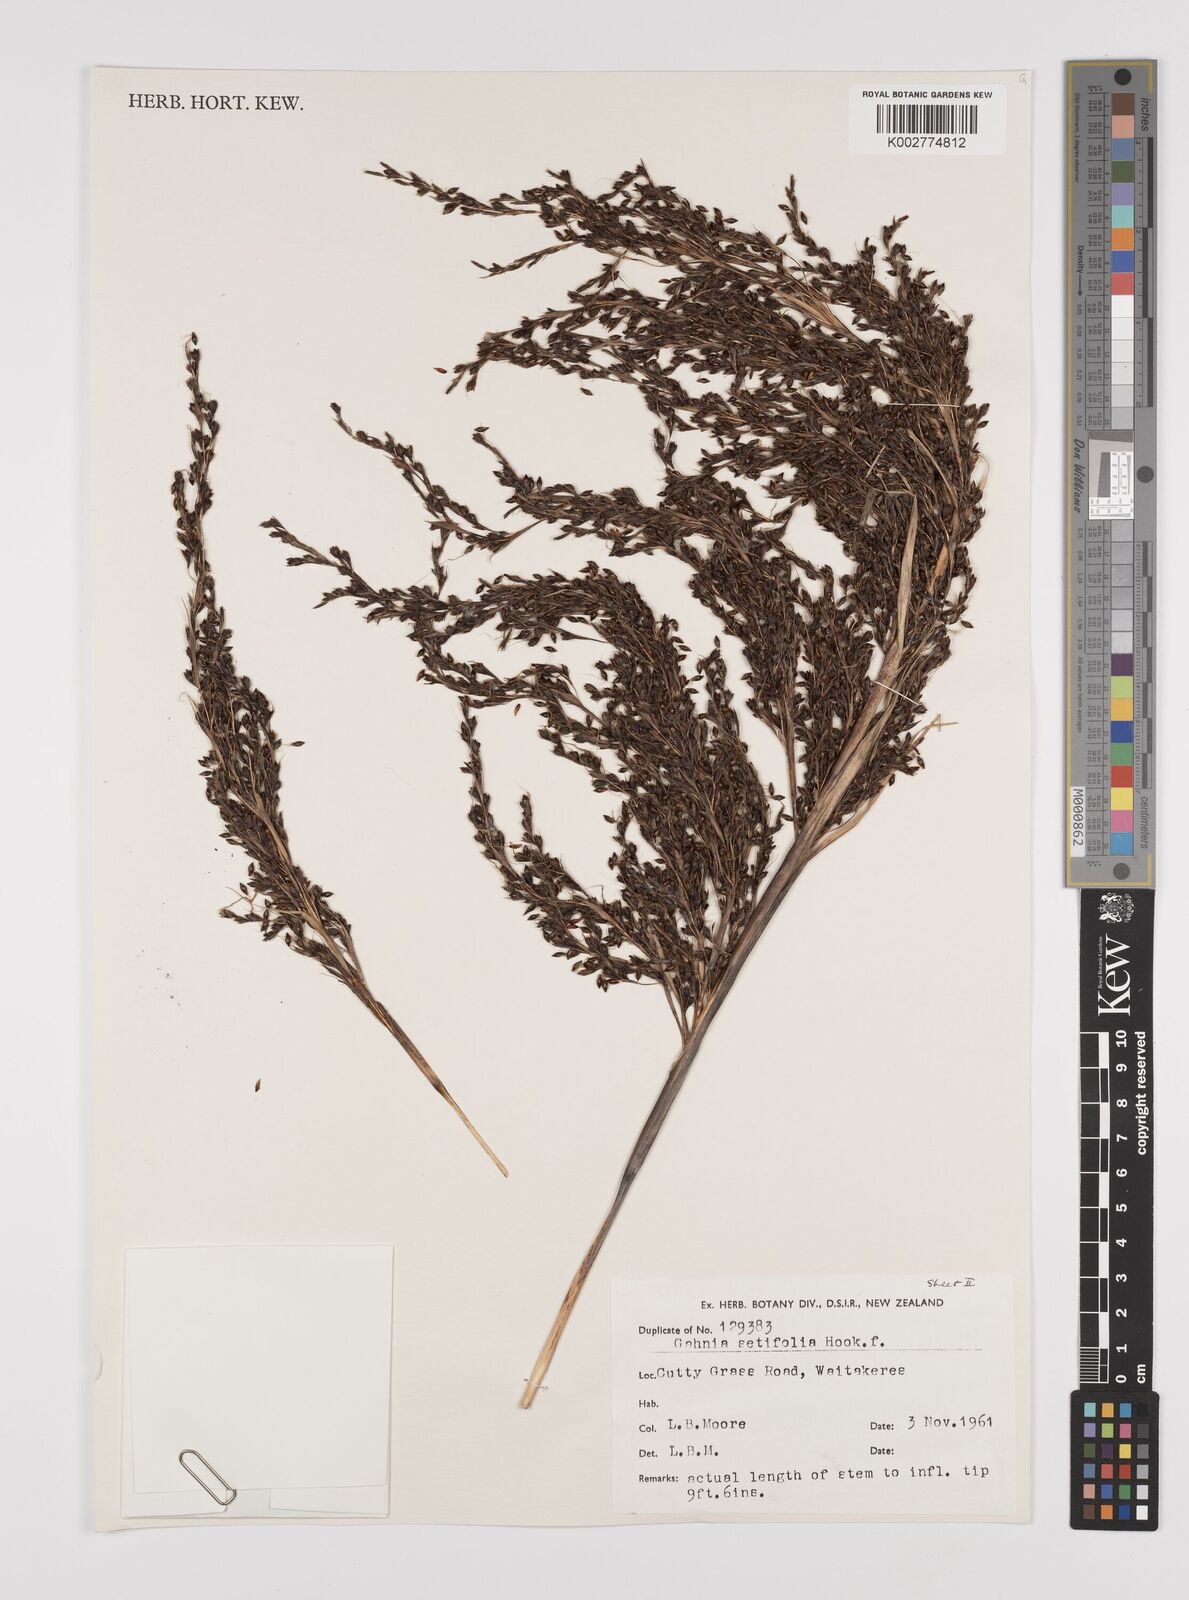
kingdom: Plantae
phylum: Tracheophyta
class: Liliopsida
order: Poales
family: Cyperaceae
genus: Gahnia
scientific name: Gahnia setifolia
